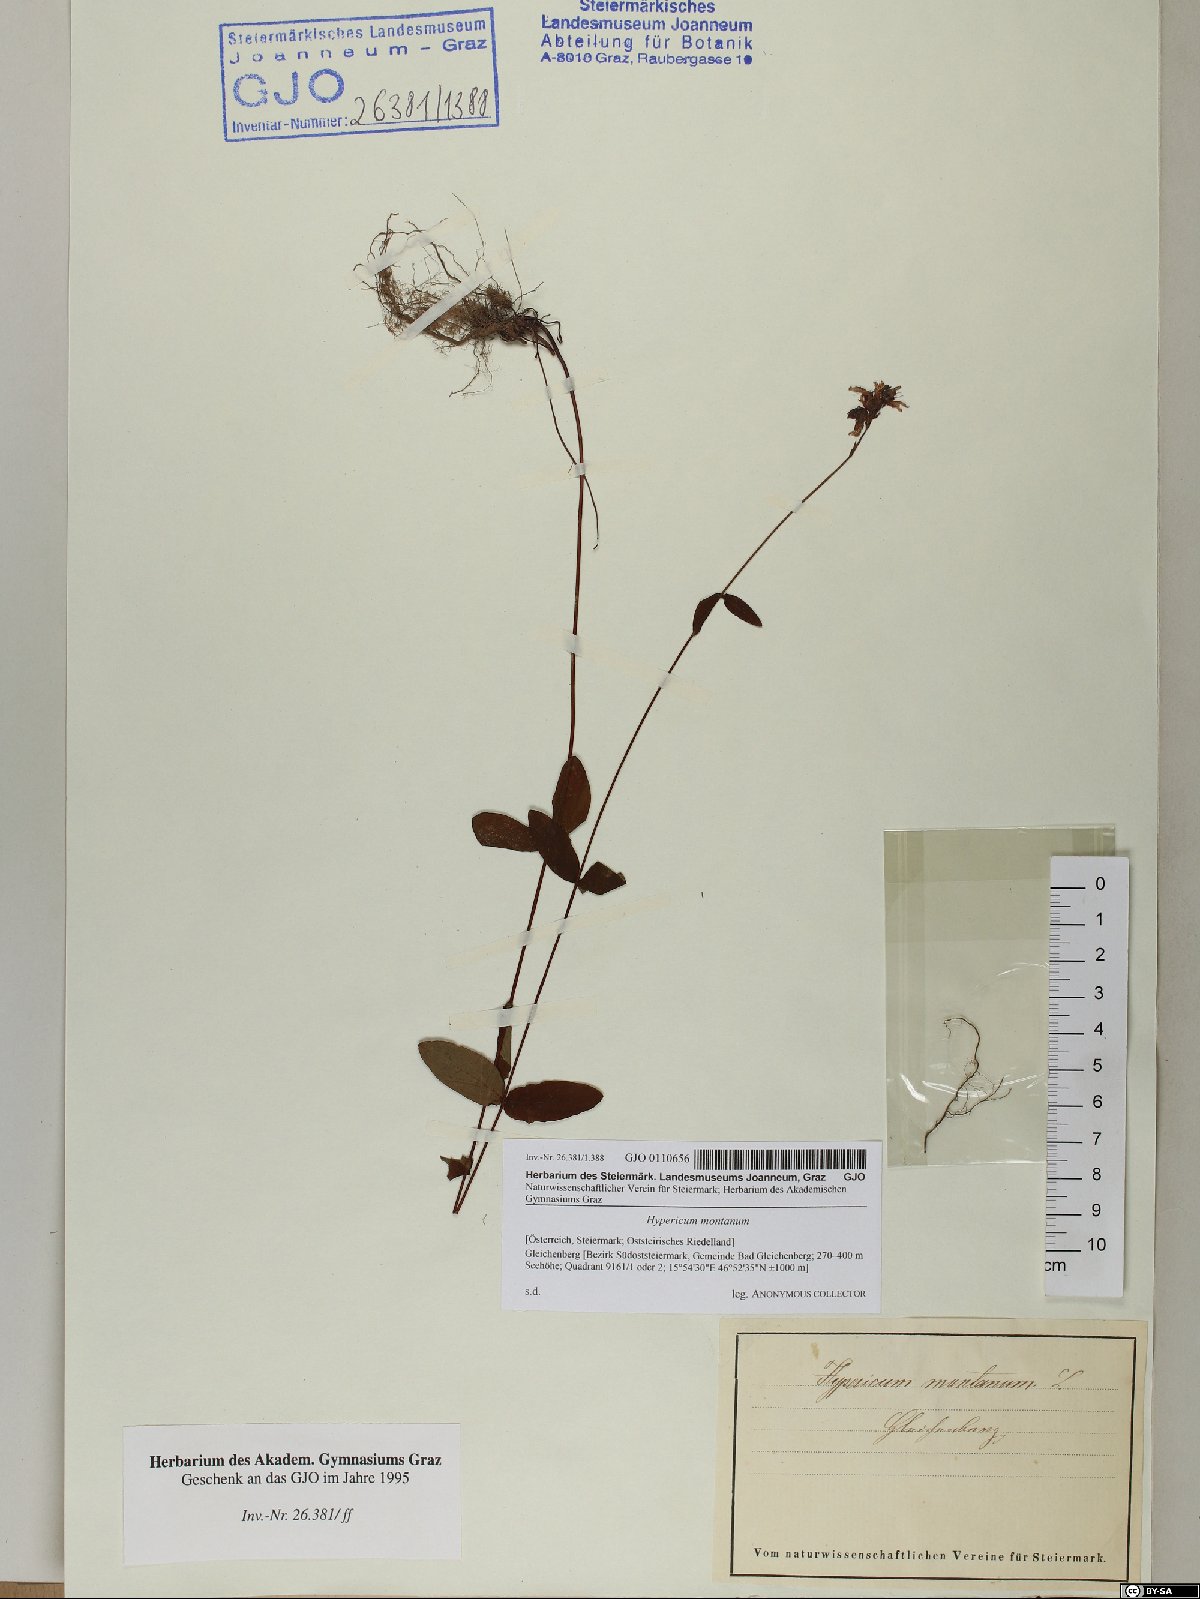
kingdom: Plantae
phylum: Tracheophyta
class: Magnoliopsida
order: Malpighiales
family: Hypericaceae
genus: Hypericum
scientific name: Hypericum montanum
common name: Pale st. john's-wort
